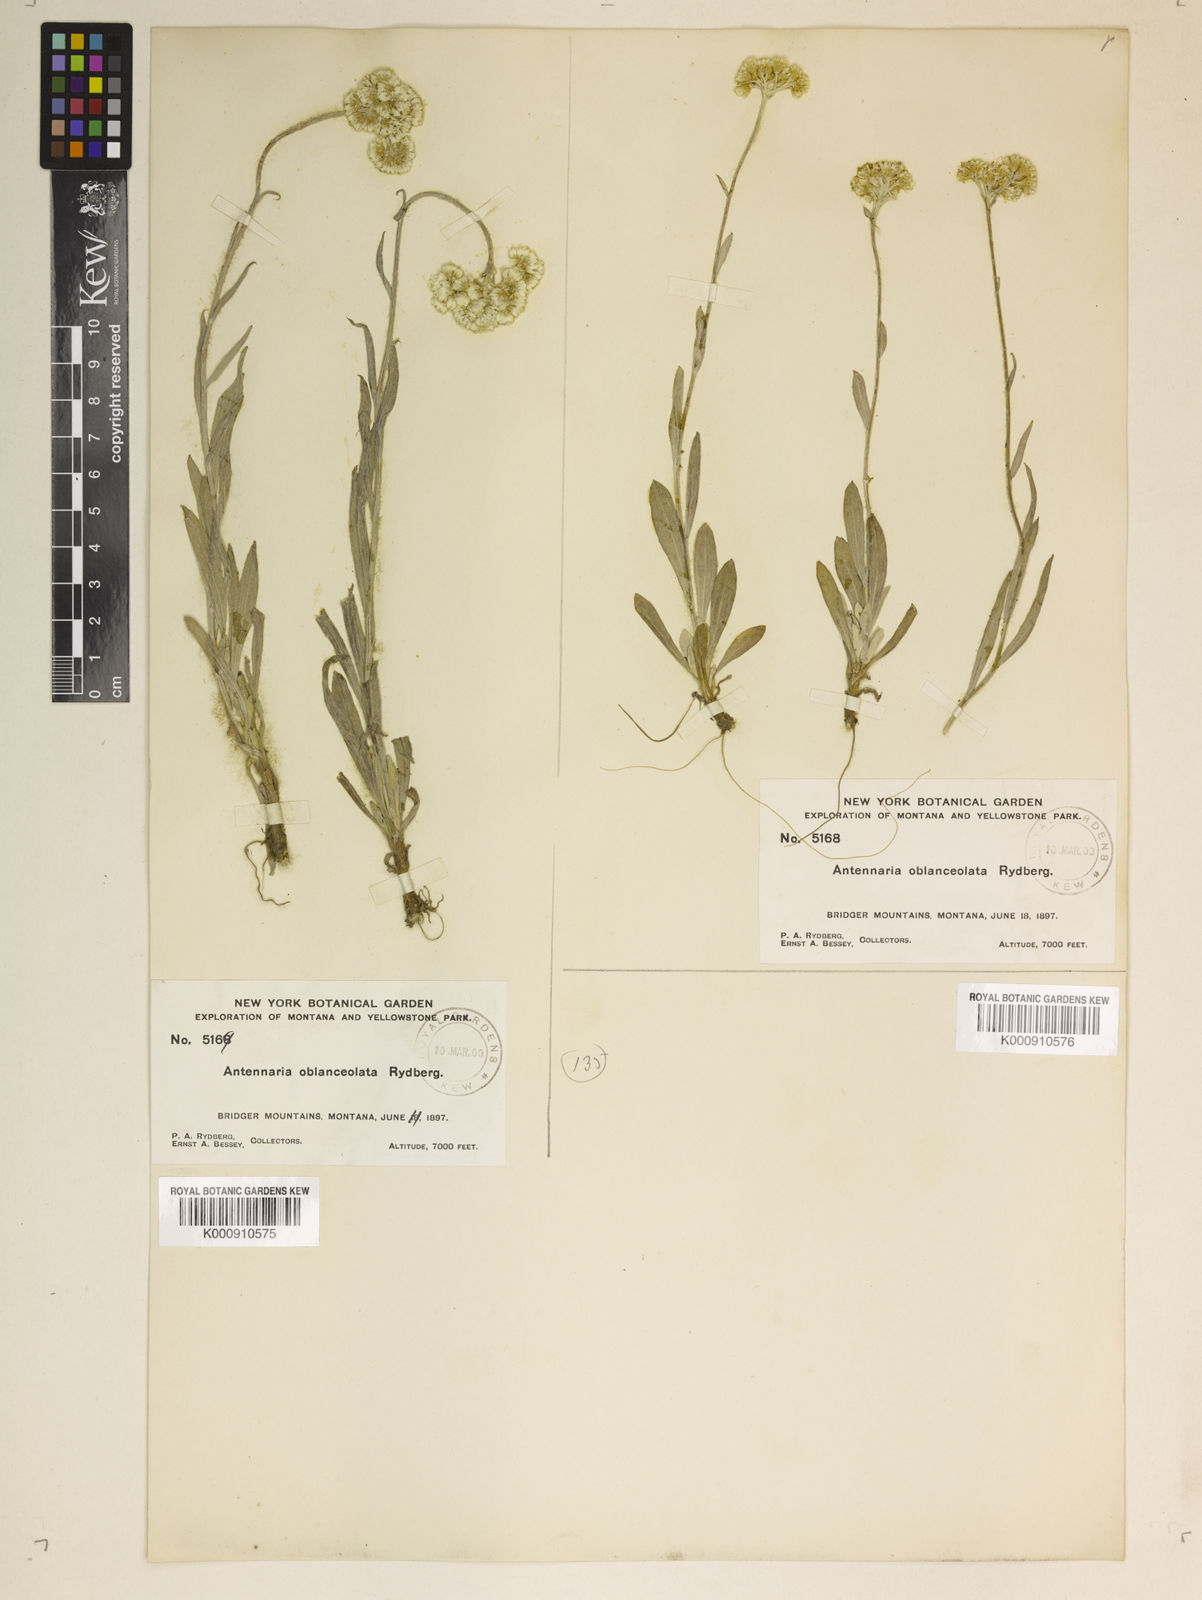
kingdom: Plantae
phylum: Tracheophyta
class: Magnoliopsida
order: Asterales
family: Asteraceae
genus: Antennaria
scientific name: Antennaria luzuloides
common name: Rush pussytoes
